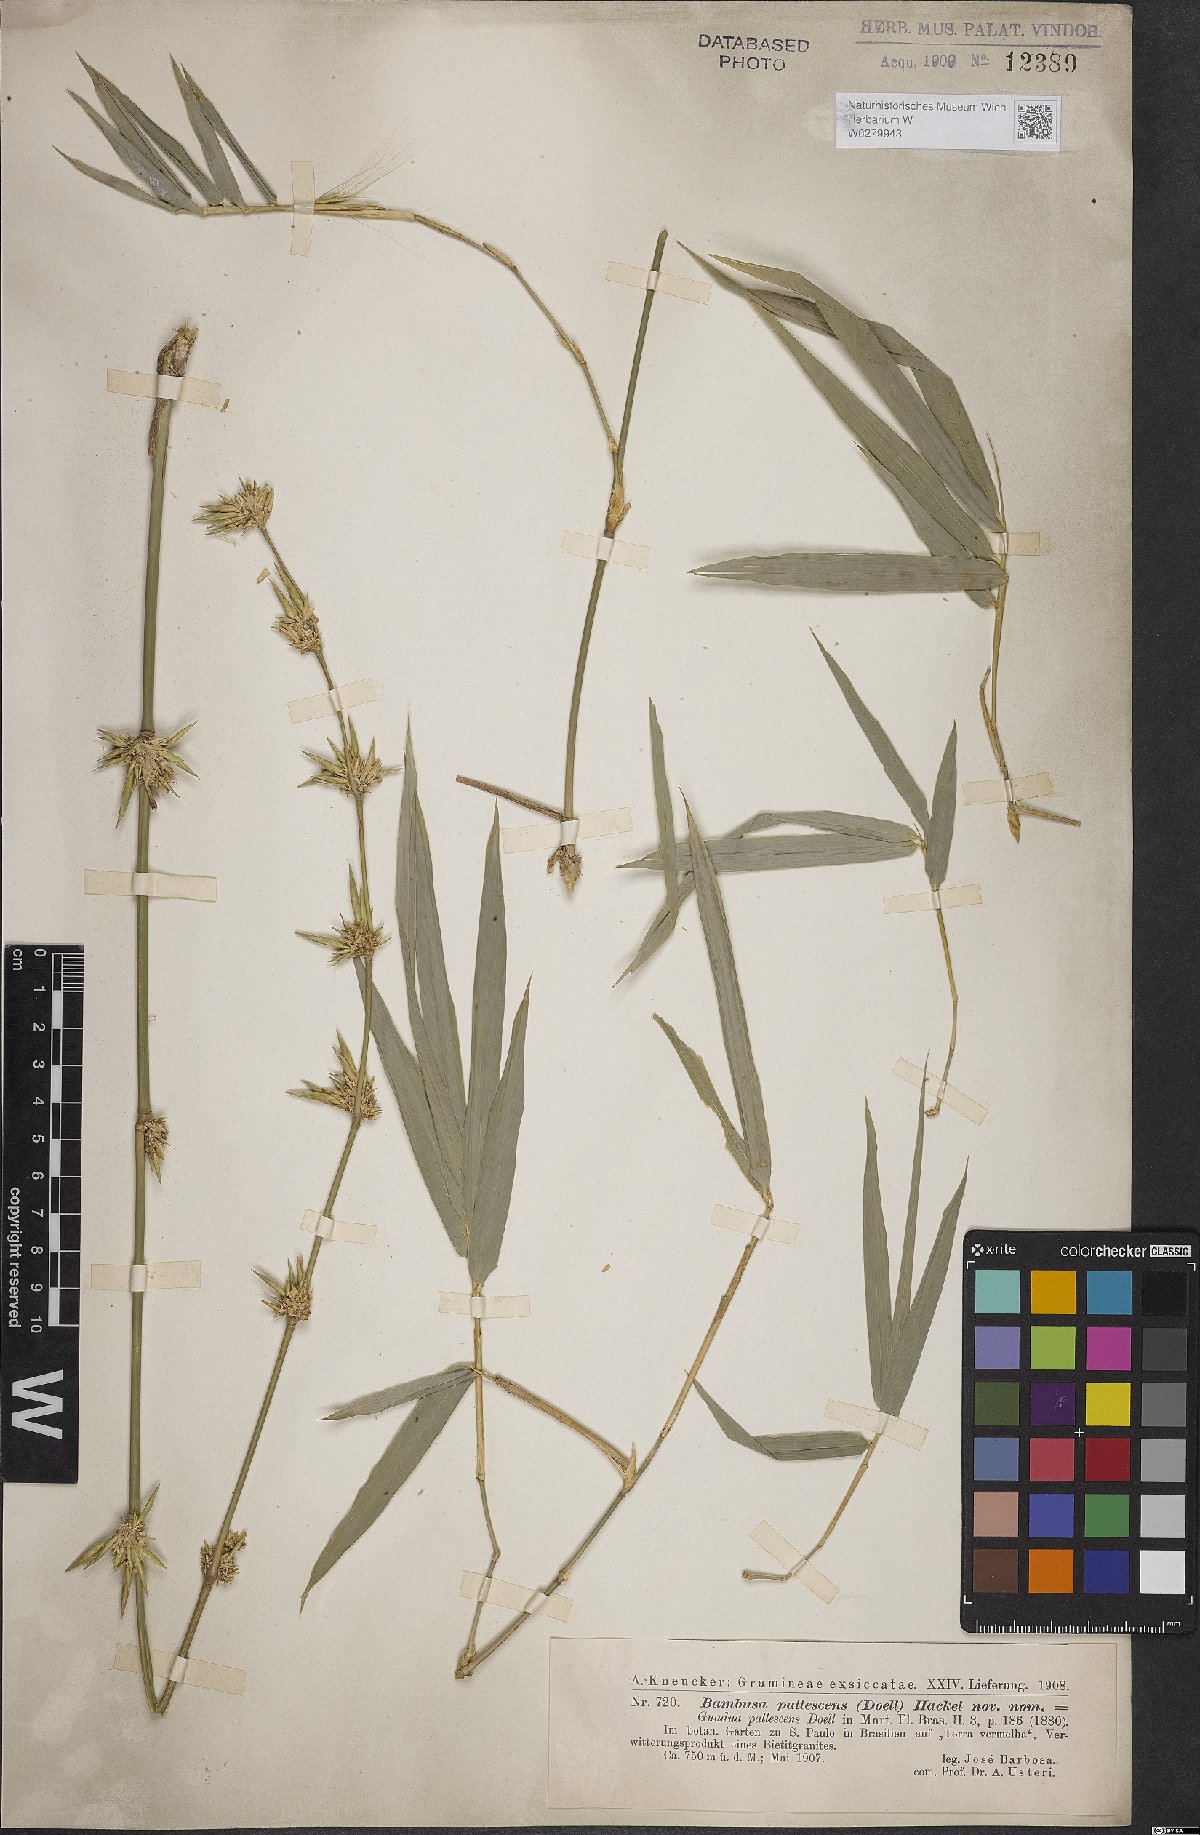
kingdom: Plantae
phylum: Tracheophyta
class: Liliopsida
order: Poales
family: Poaceae
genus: Bambusa
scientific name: Bambusa tuldoides
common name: Verdant bamboo
